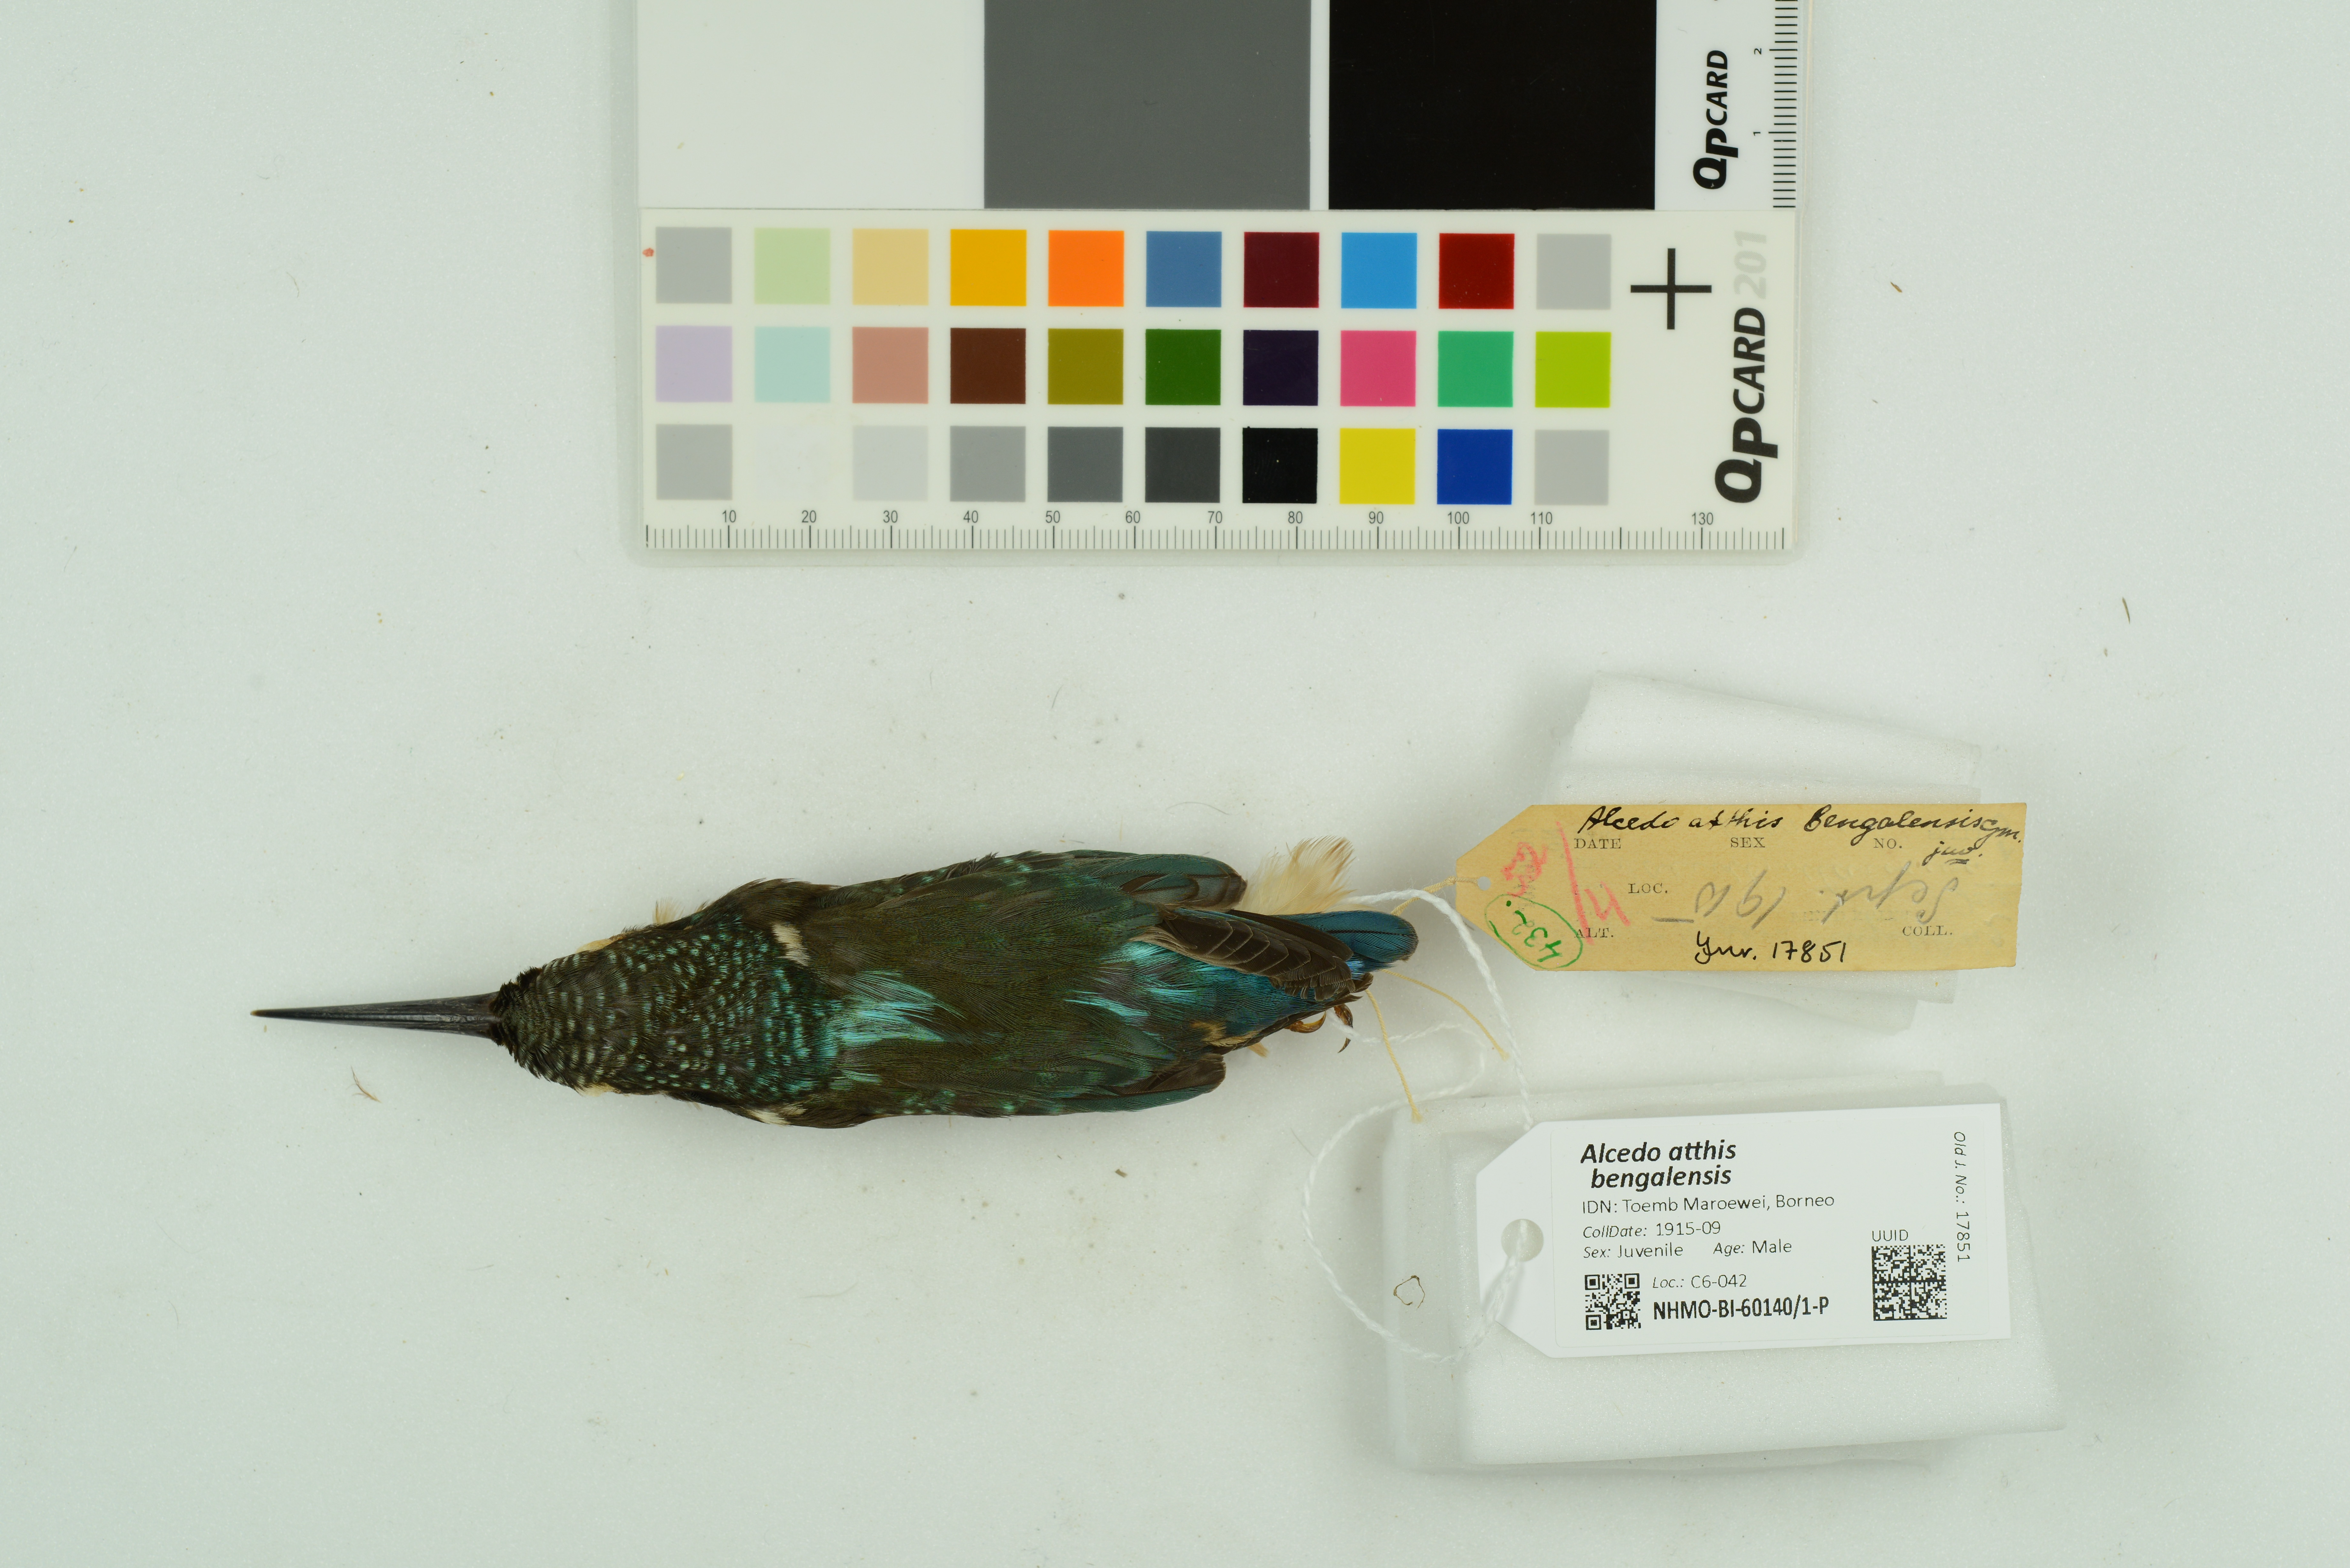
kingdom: Animalia
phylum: Chordata
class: Aves
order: Coraciiformes
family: Alcedinidae
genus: Alcedo
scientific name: Alcedo atthis
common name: Common kingfisher
